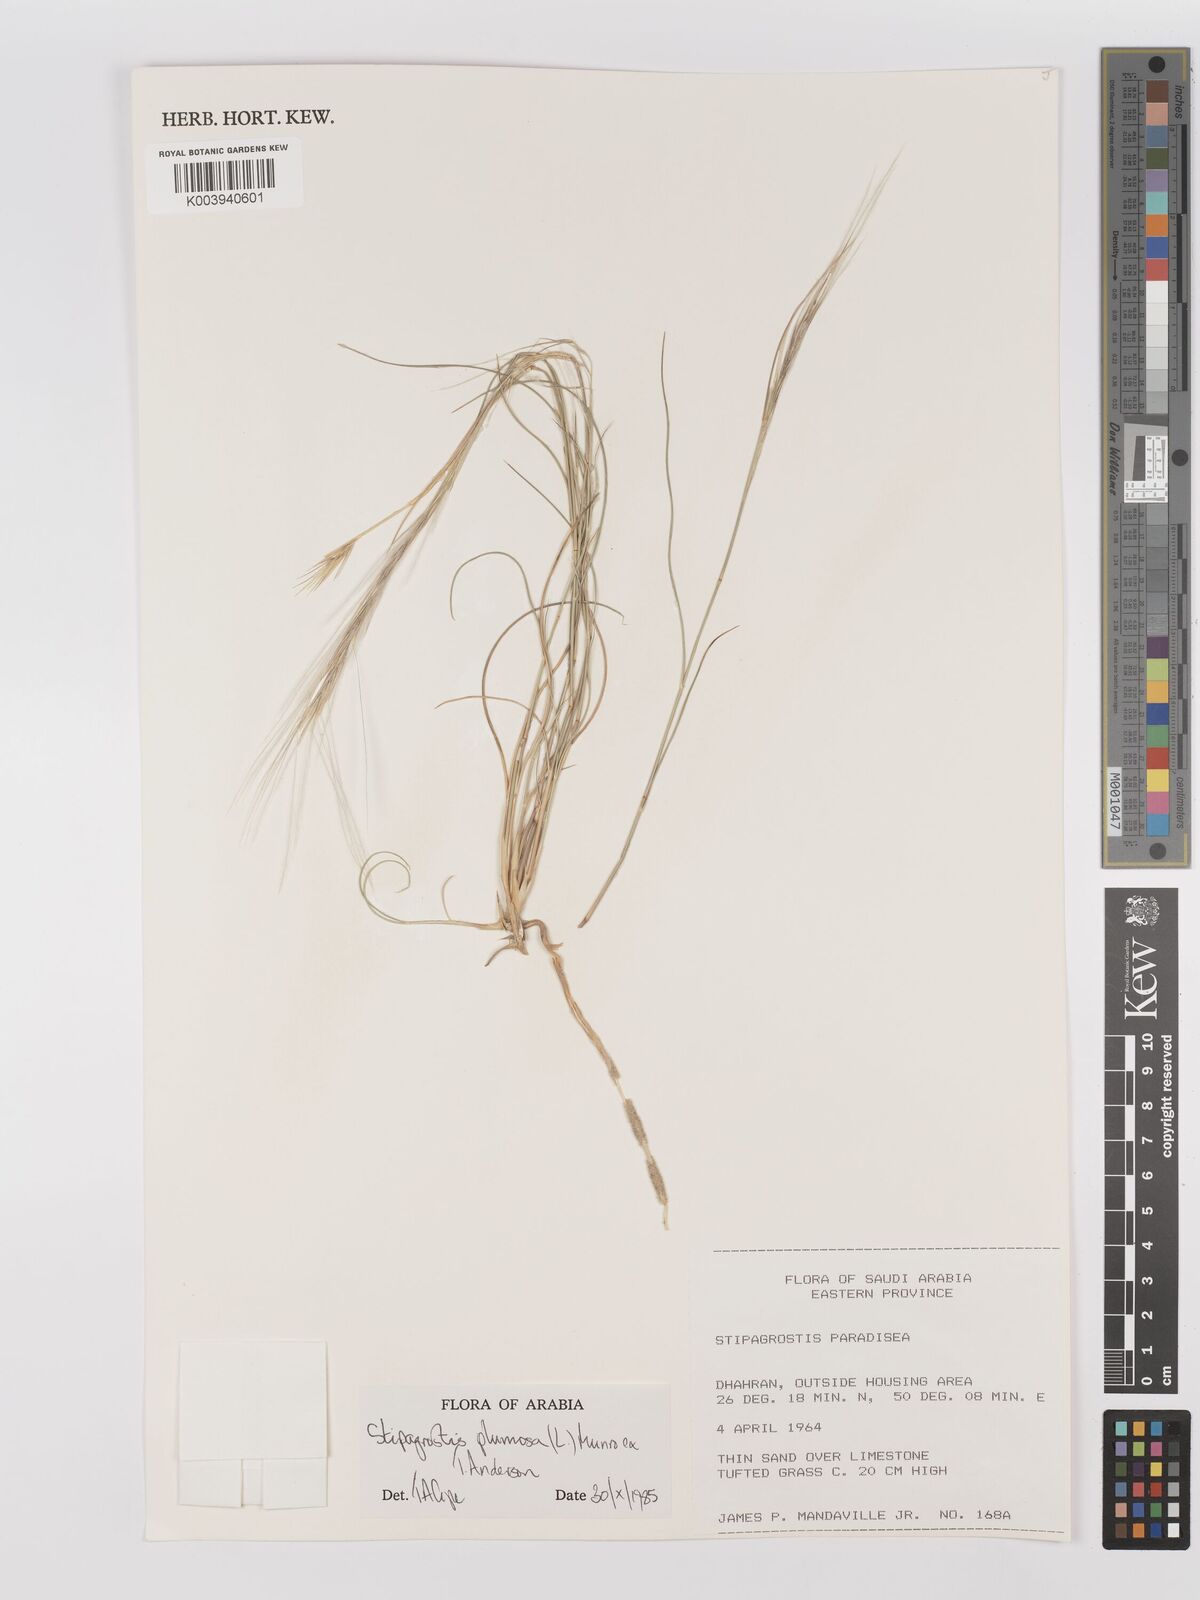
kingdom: Plantae
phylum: Tracheophyta
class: Liliopsida
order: Poales
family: Poaceae
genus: Stipagrostis
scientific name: Stipagrostis plumosa
